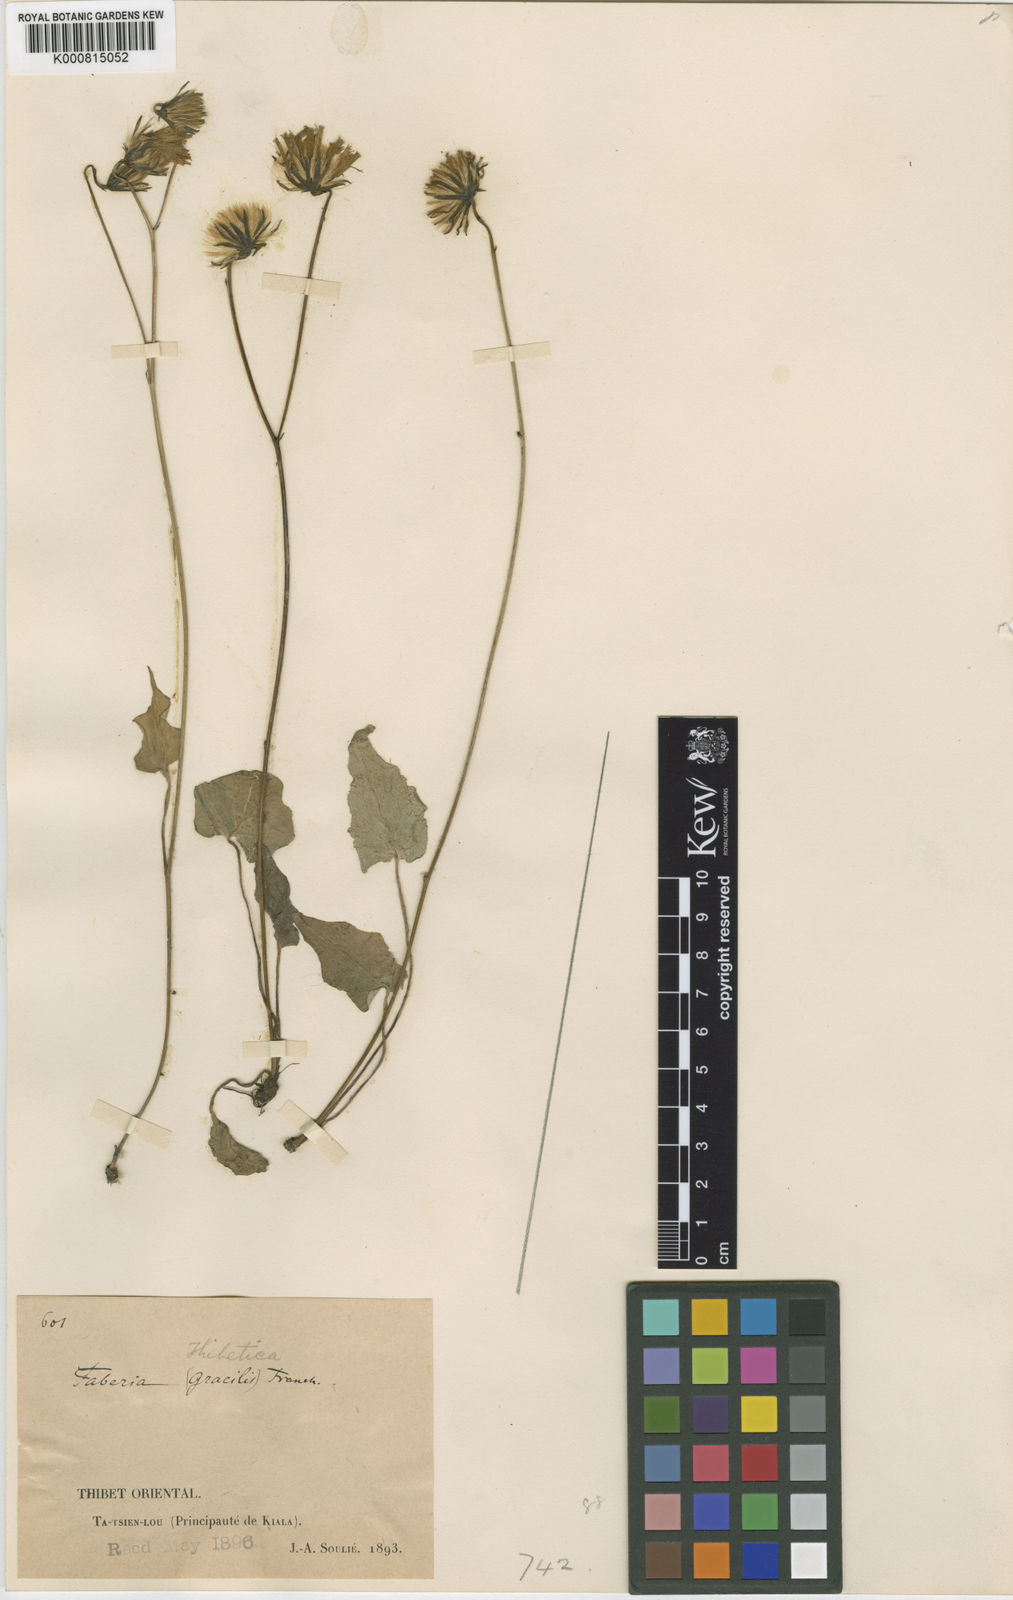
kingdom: Plantae
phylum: Tracheophyta
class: Magnoliopsida
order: Asterales
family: Asteraceae
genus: Prenanthes
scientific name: Prenanthes
